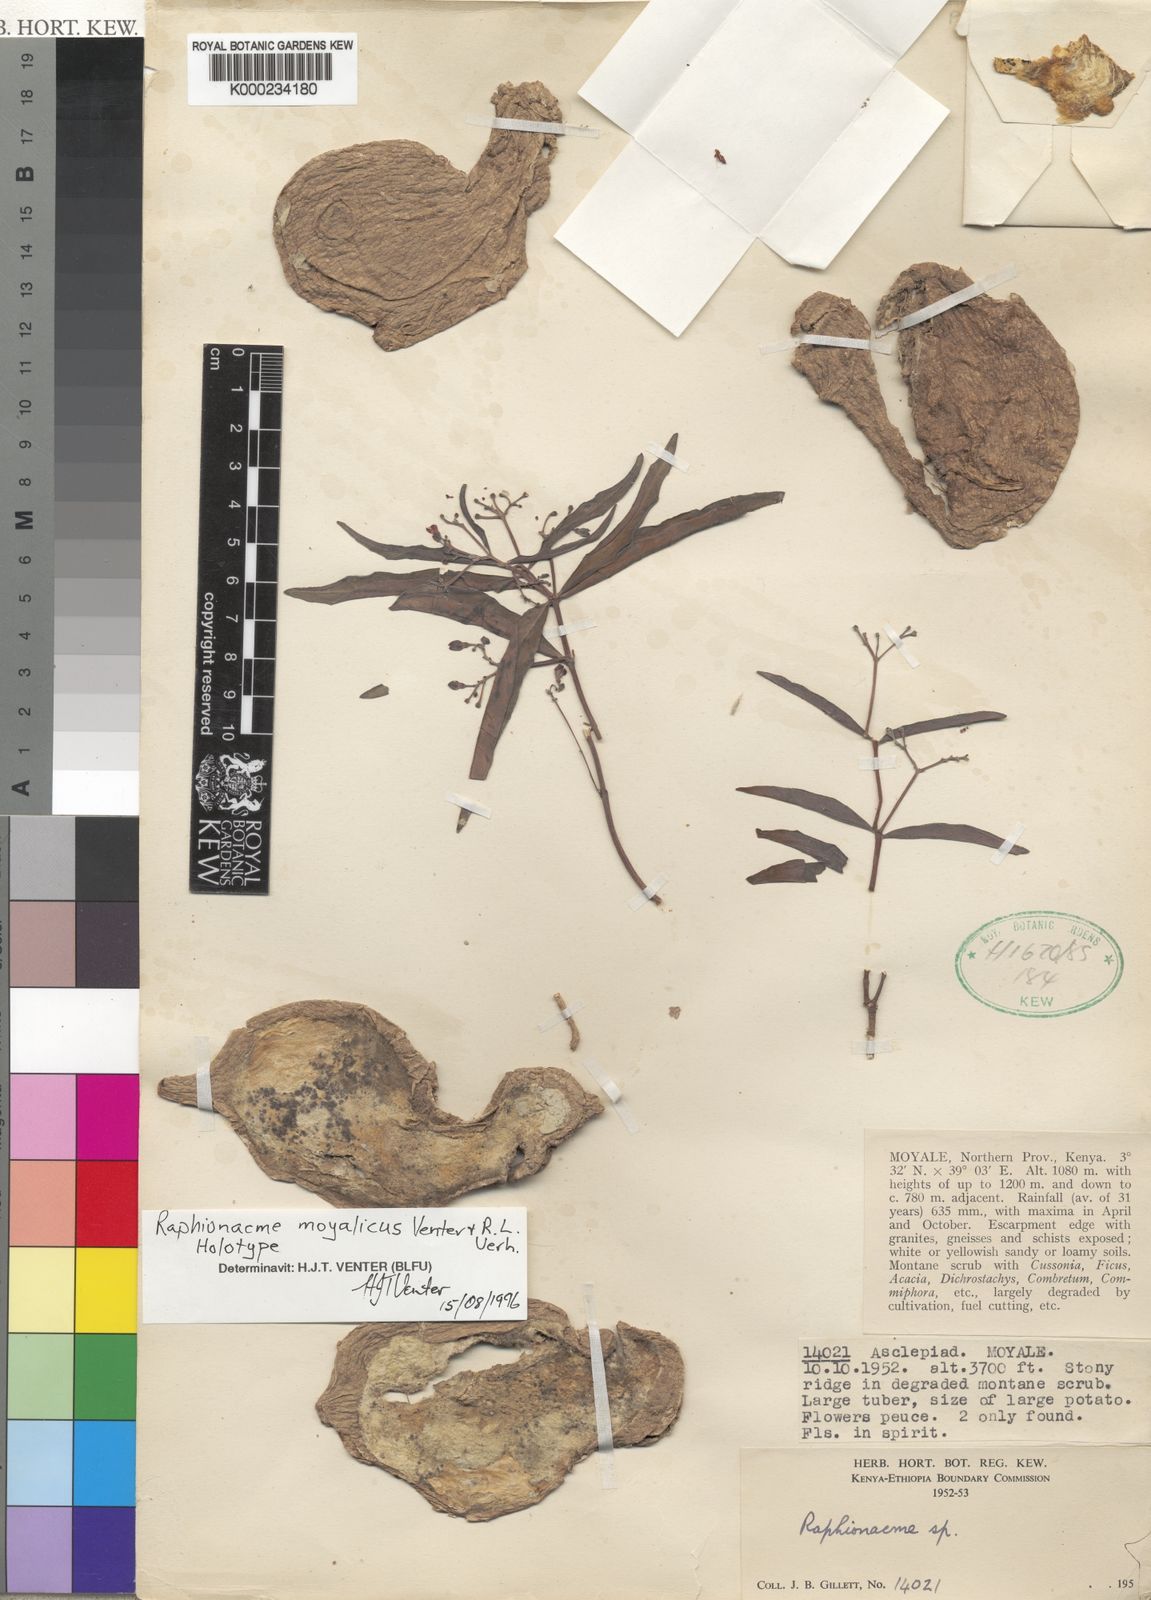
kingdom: Plantae
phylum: Tracheophyta
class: Magnoliopsida
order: Gentianales
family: Apocynaceae
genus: Raphionacme
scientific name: Raphionacme moyalica
